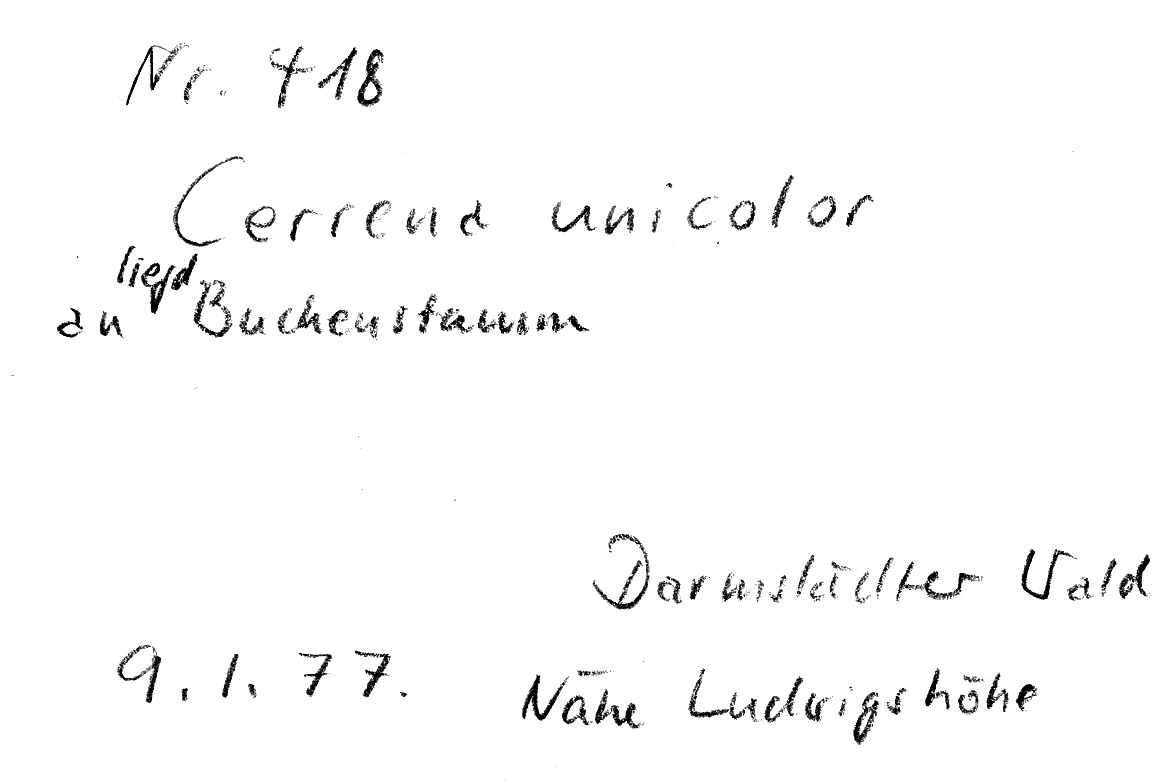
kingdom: Plantae
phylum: Tracheophyta
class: Magnoliopsida
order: Fagales
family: Fagaceae
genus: Fagus
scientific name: Fagus sylvatica
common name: Beech
